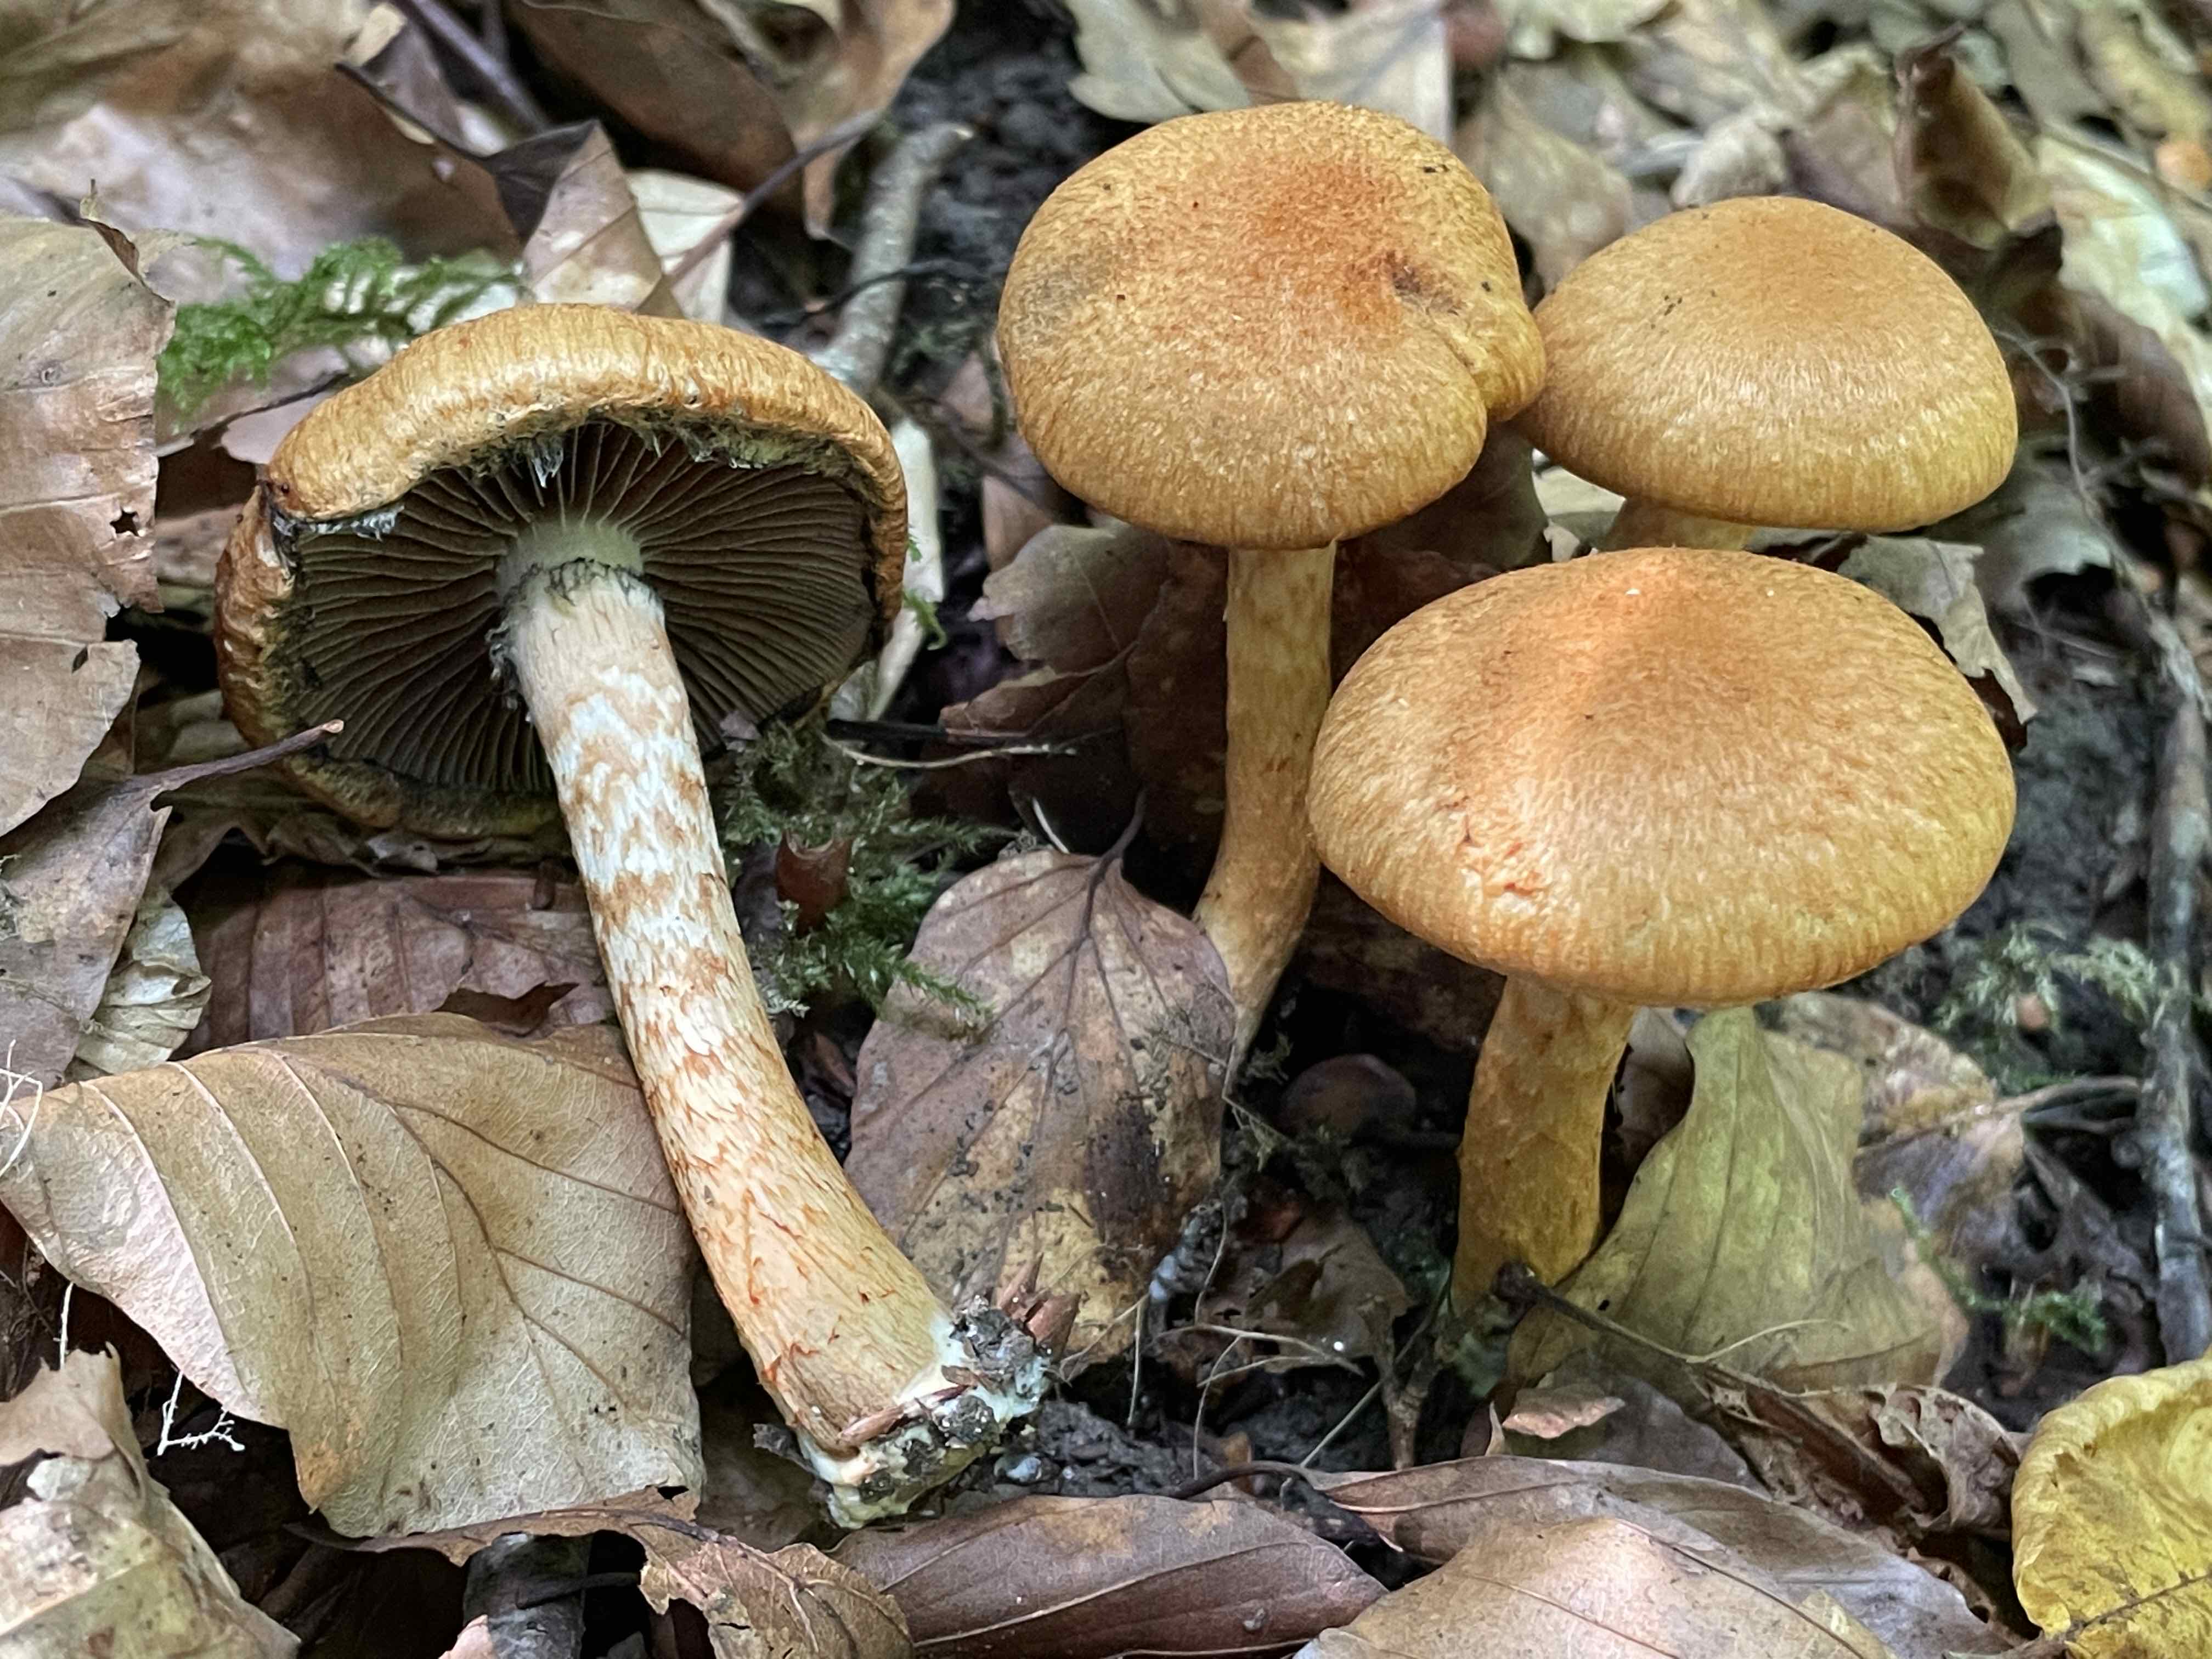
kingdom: Fungi
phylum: Basidiomycota
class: Agaricomycetes
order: Agaricales
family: Psathyrellaceae
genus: Lacrymaria
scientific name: Lacrymaria pyrotricha
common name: ildhåret mørkhat
